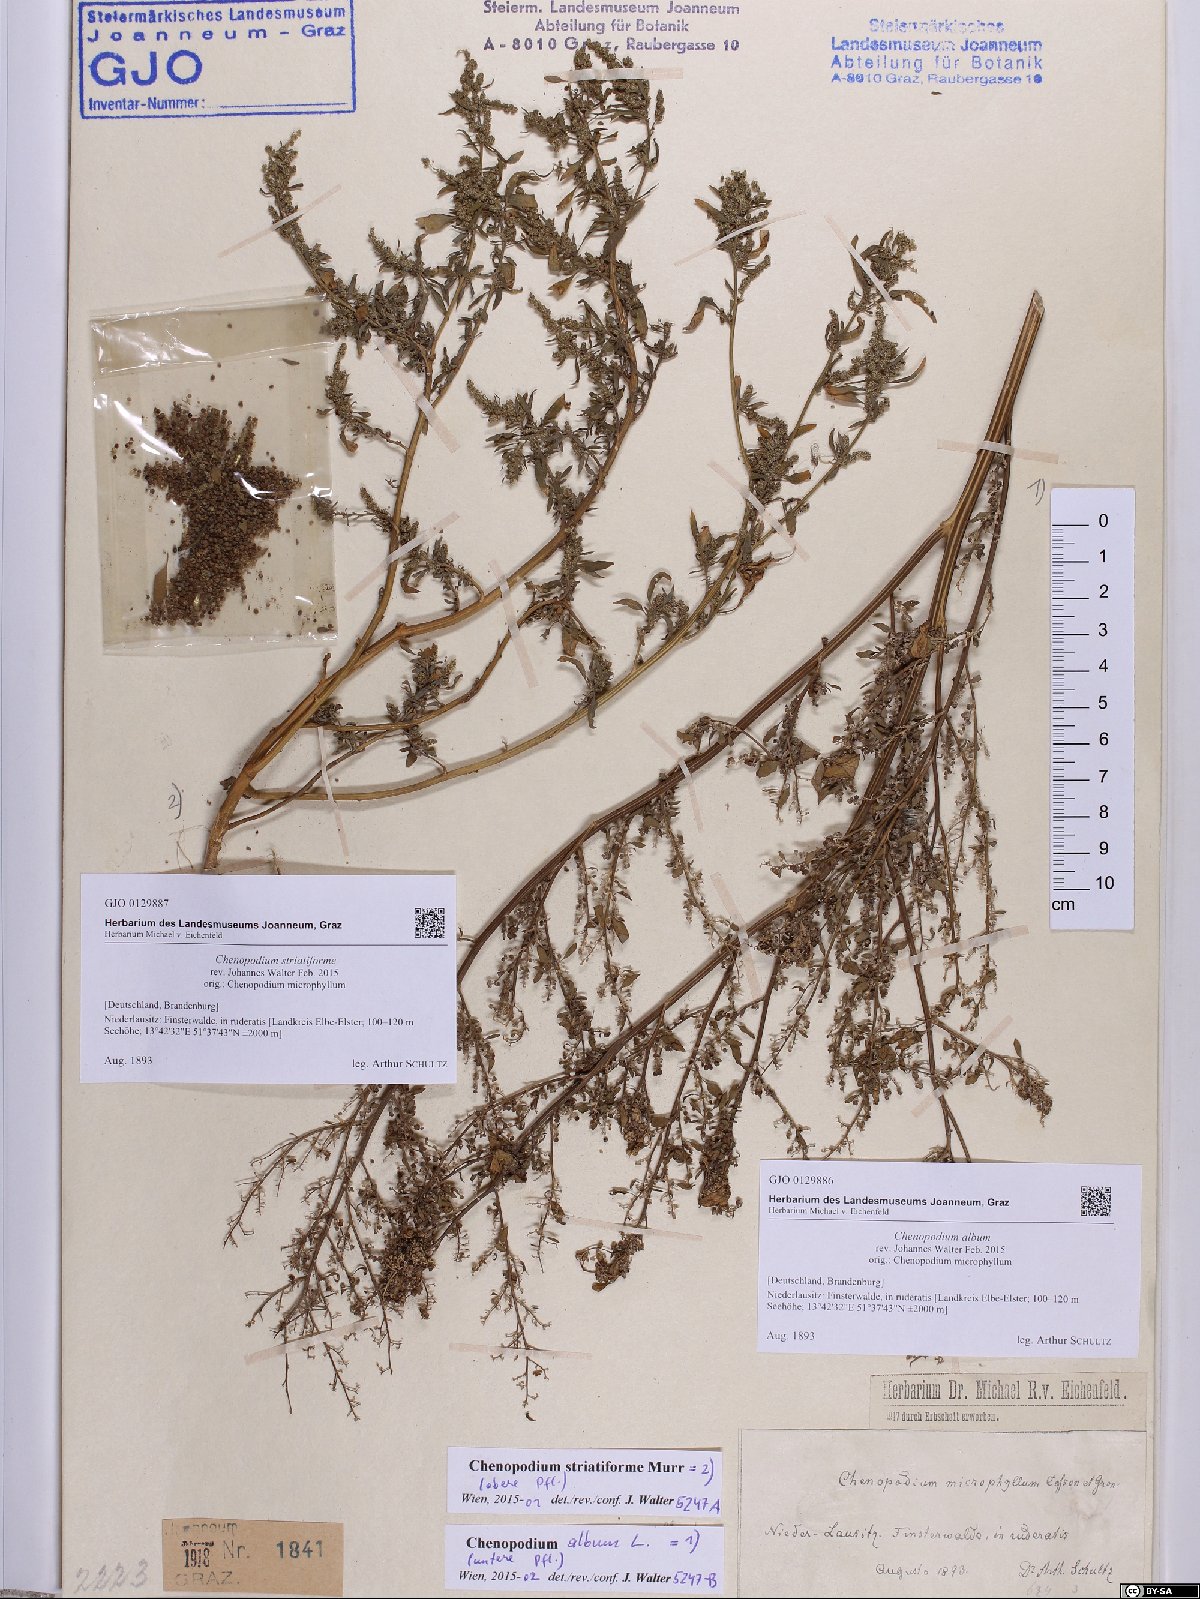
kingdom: Plantae
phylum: Tracheophyta
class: Magnoliopsida
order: Caryophyllales
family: Amaranthaceae
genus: Chenopodium
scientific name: Chenopodium album
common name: Fat-hen
